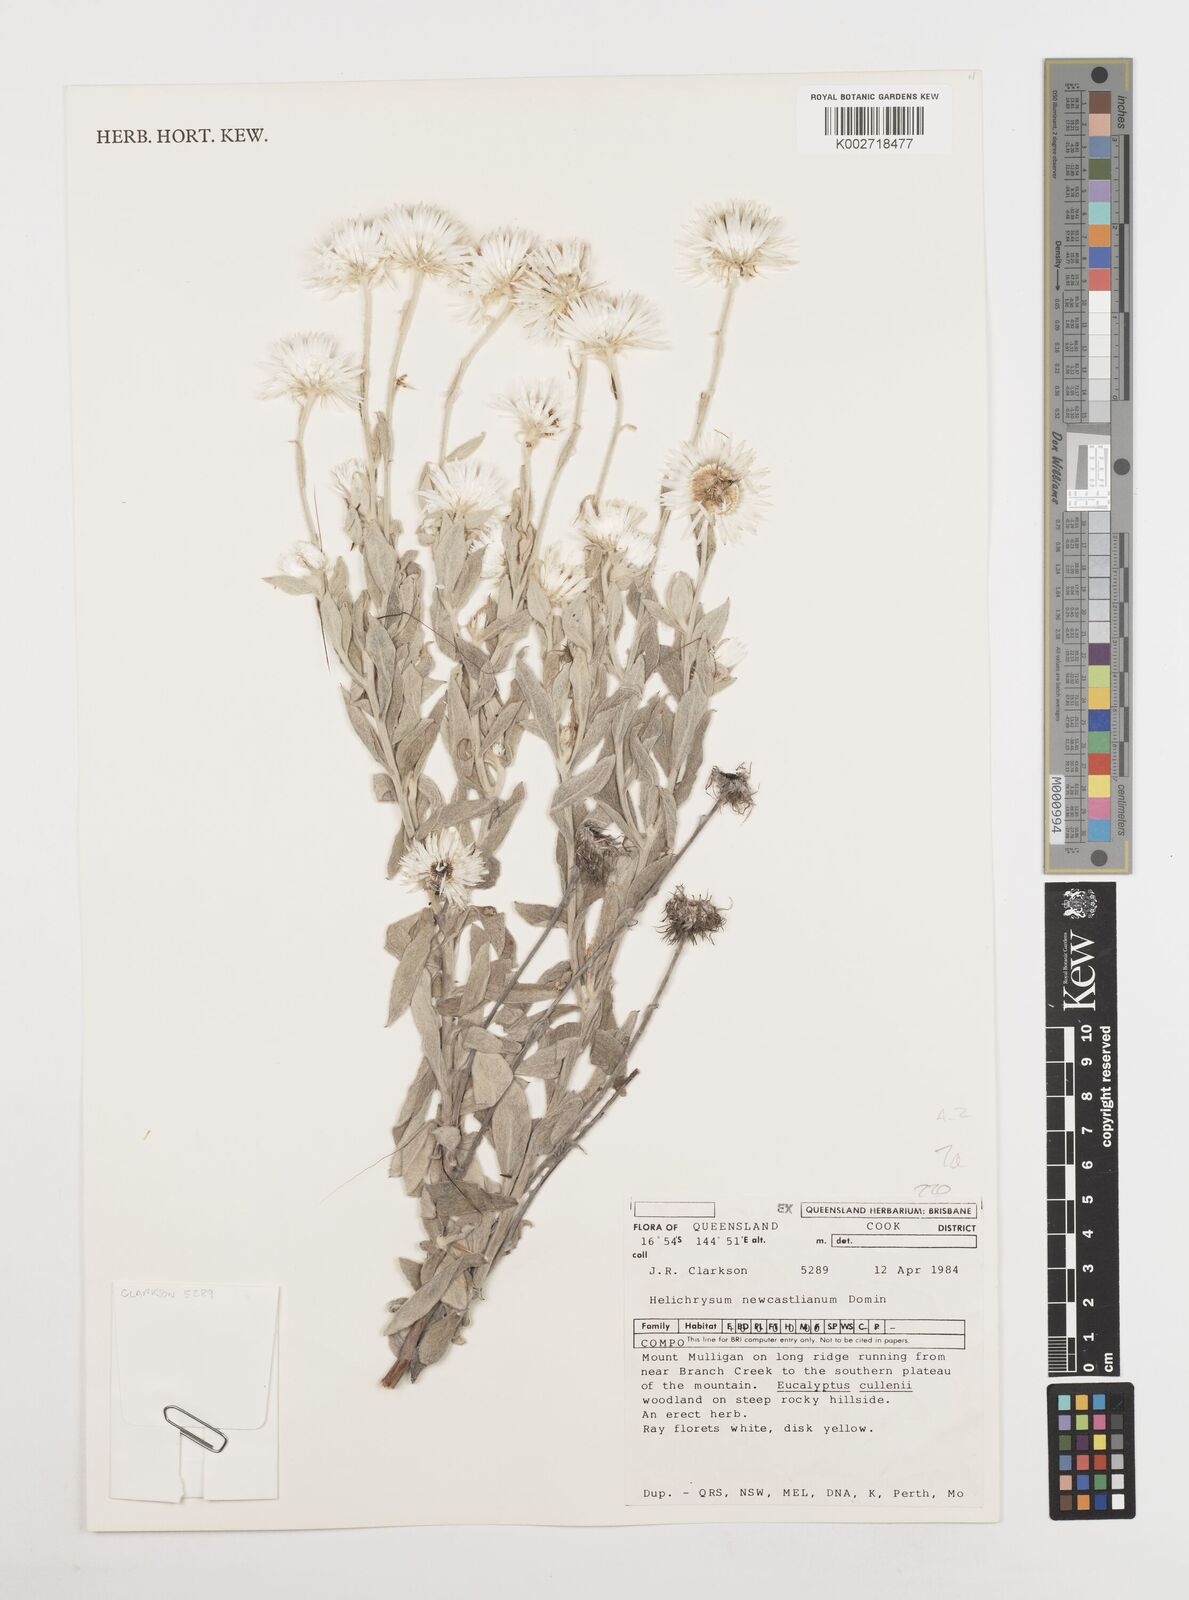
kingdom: Plantae
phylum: Tracheophyta
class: Magnoliopsida
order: Asterales
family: Asteraceae
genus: Coronidium
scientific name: Coronidium newcastlianum
